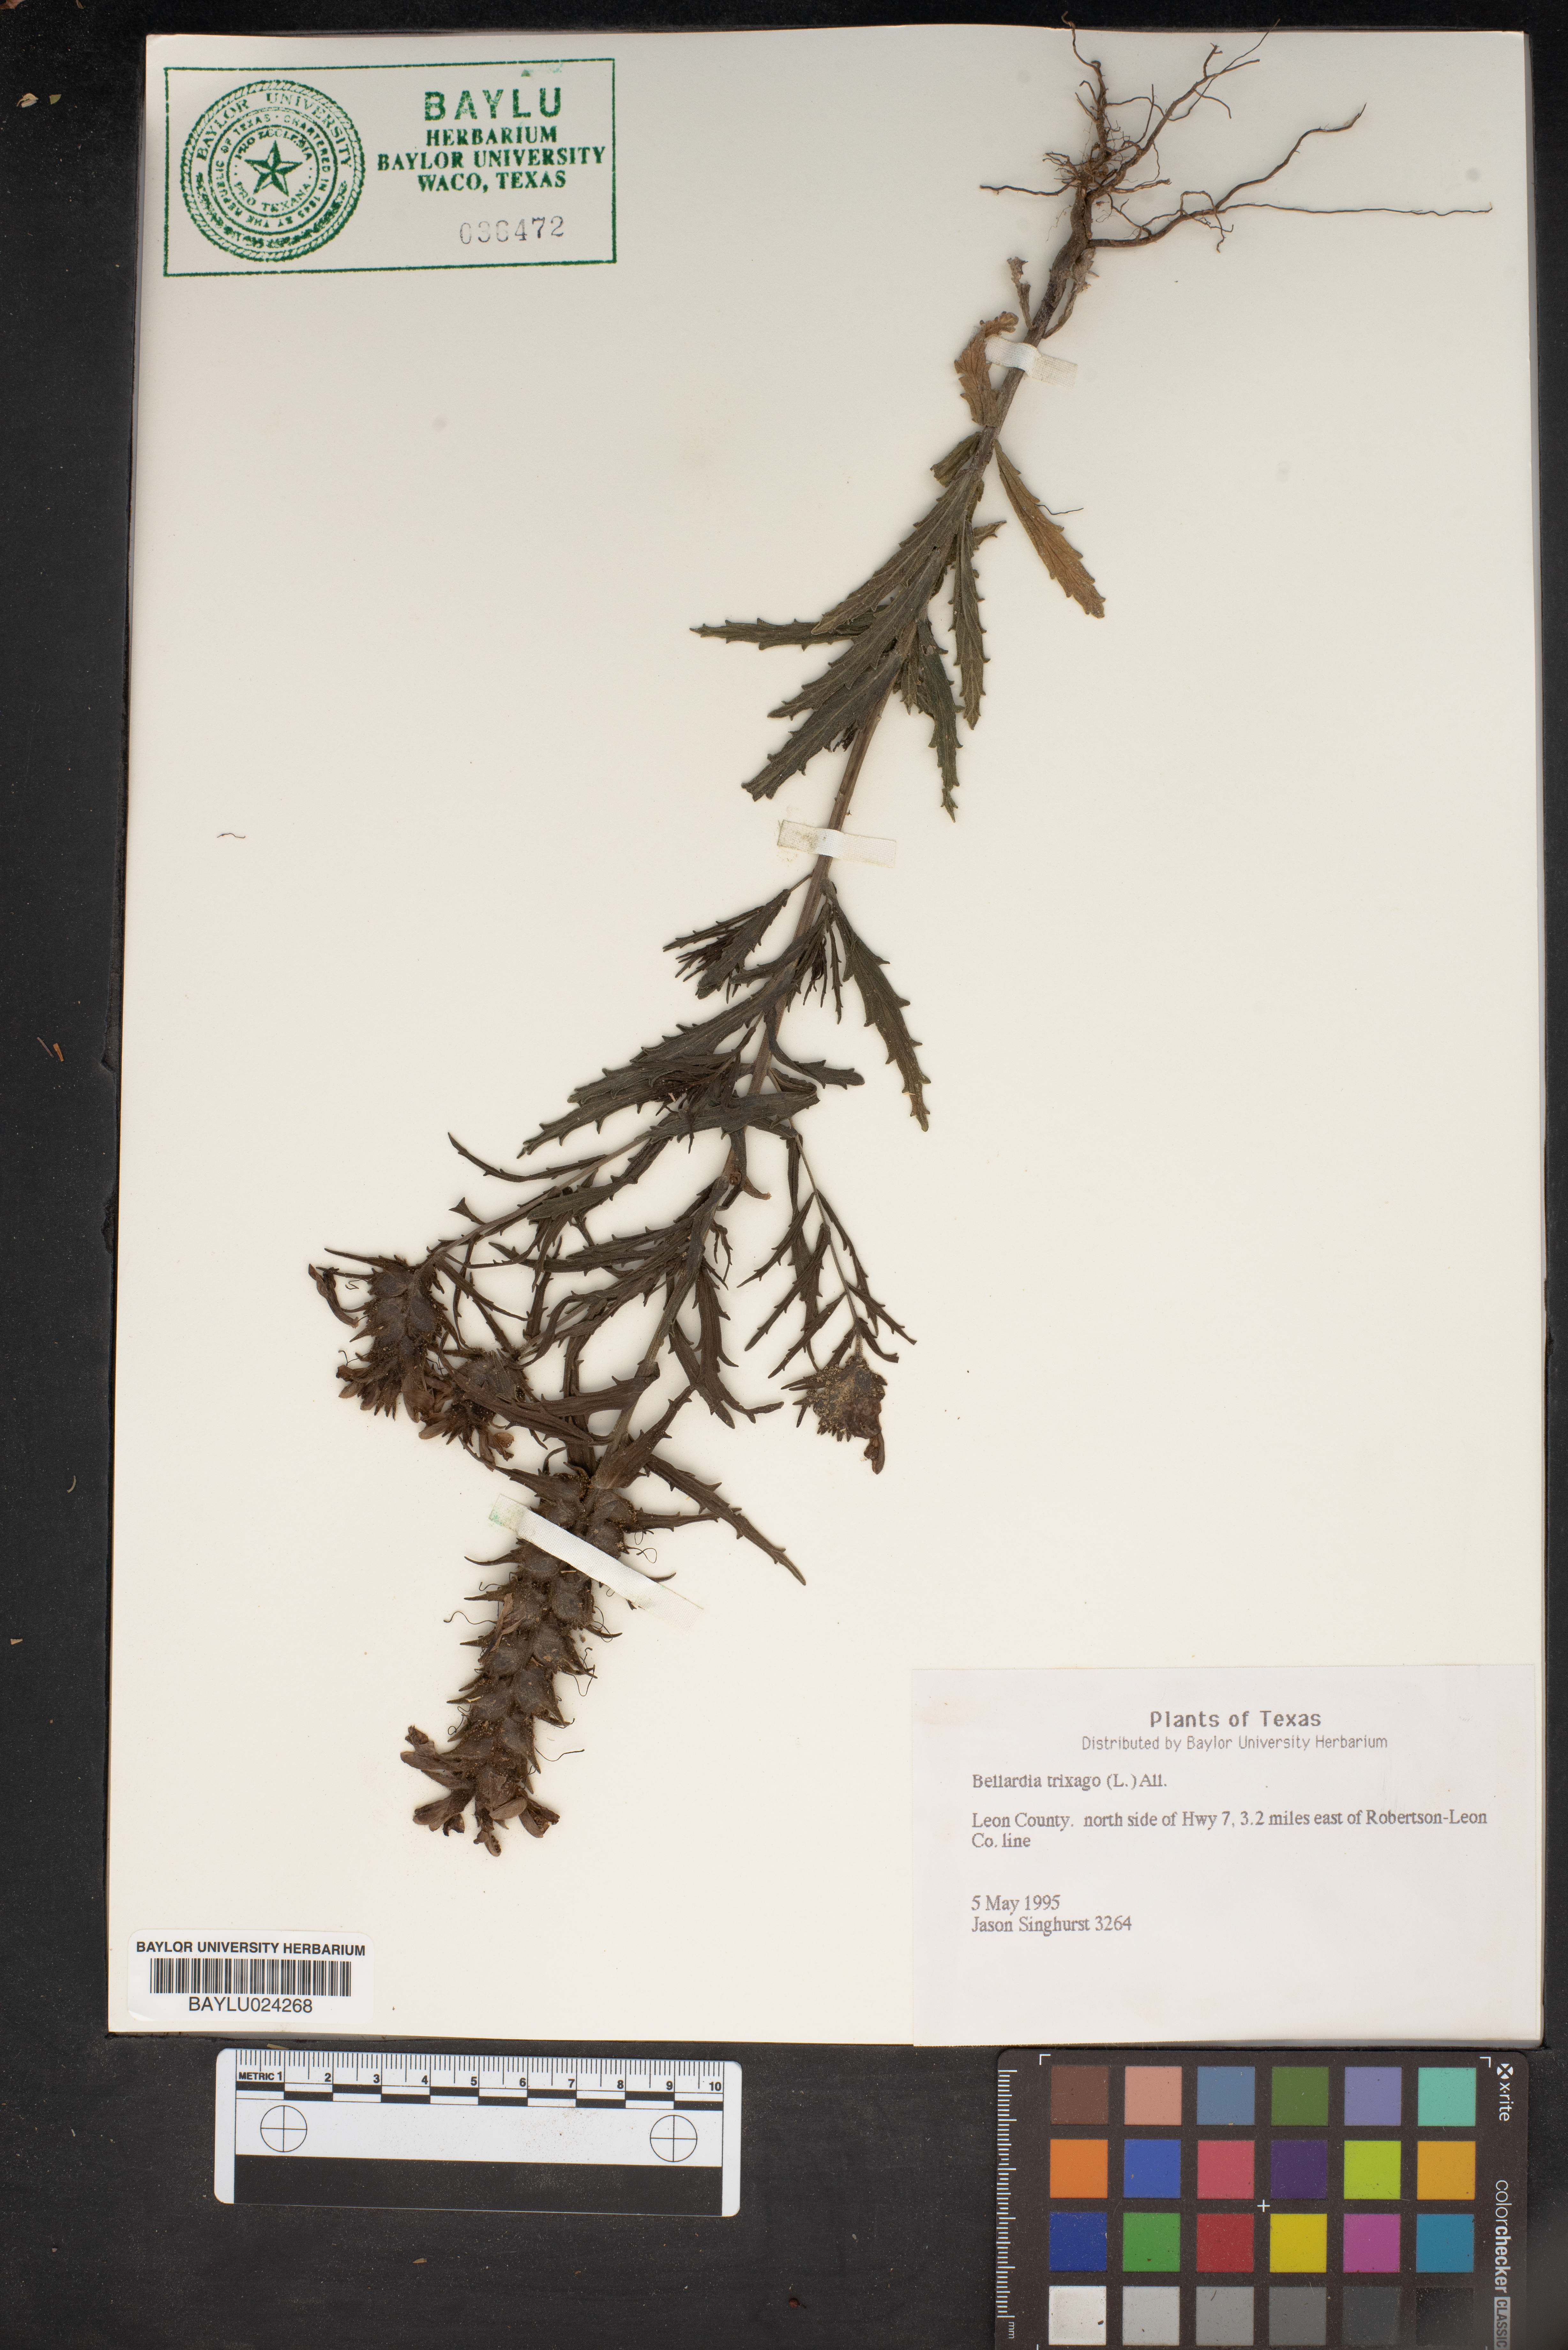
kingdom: Plantae
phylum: Tracheophyta
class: Magnoliopsida
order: Lamiales
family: Orobanchaceae
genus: Bellardia
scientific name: Bellardia trixago
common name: Mediterranean lineseed
